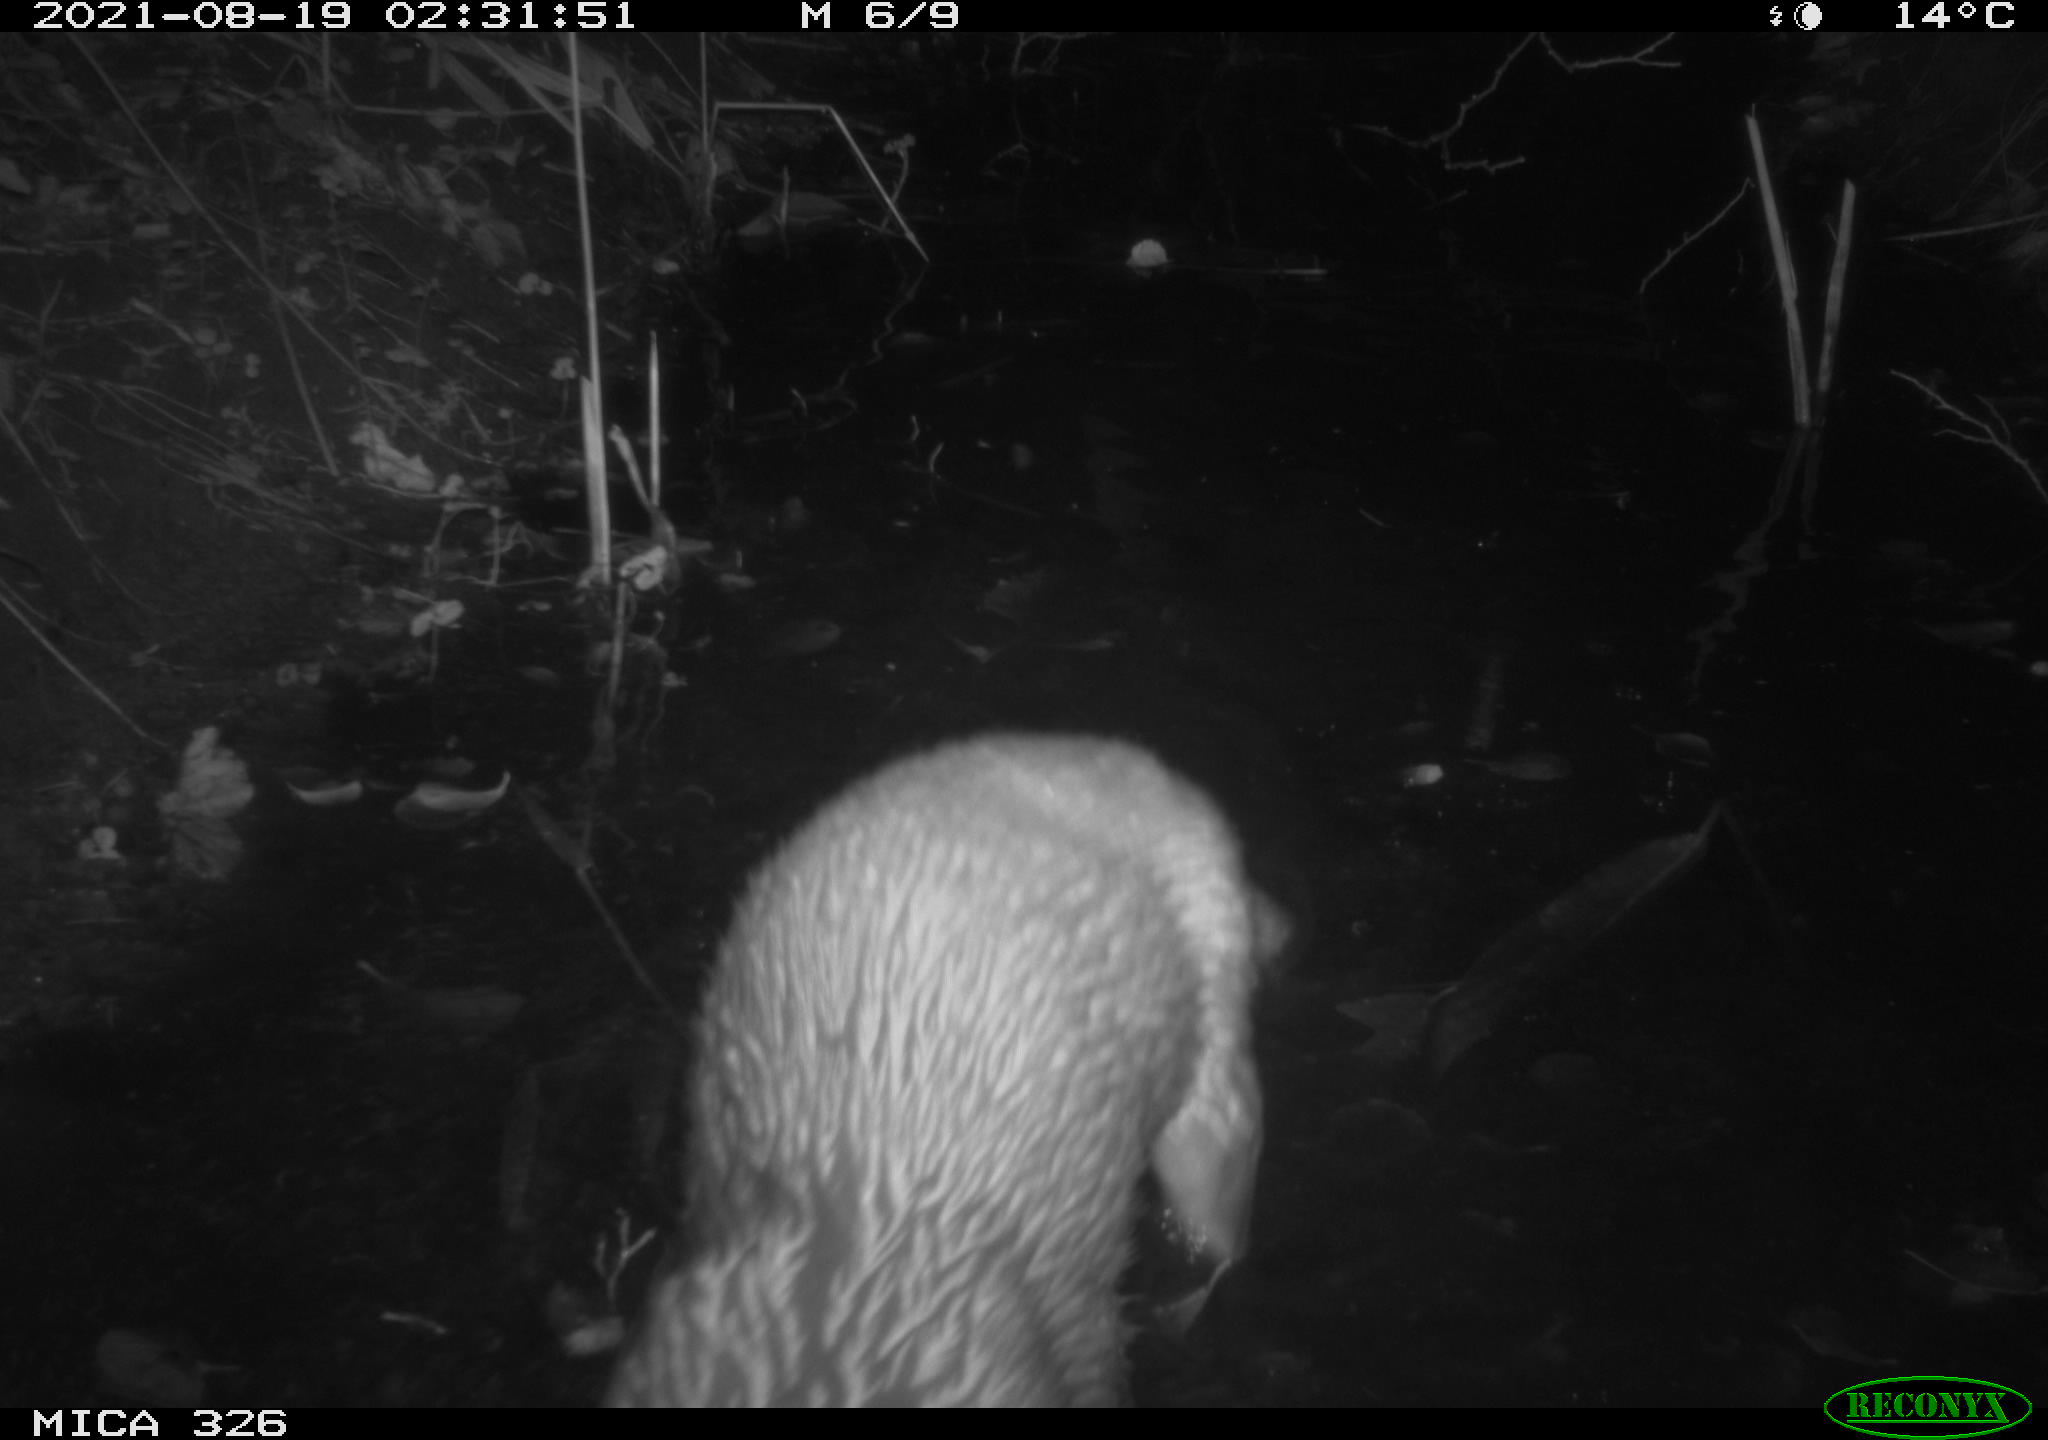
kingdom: Animalia
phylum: Chordata
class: Mammalia
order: Carnivora
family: Mustelidae
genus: Lutra
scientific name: Lutra lutra
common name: European otter
